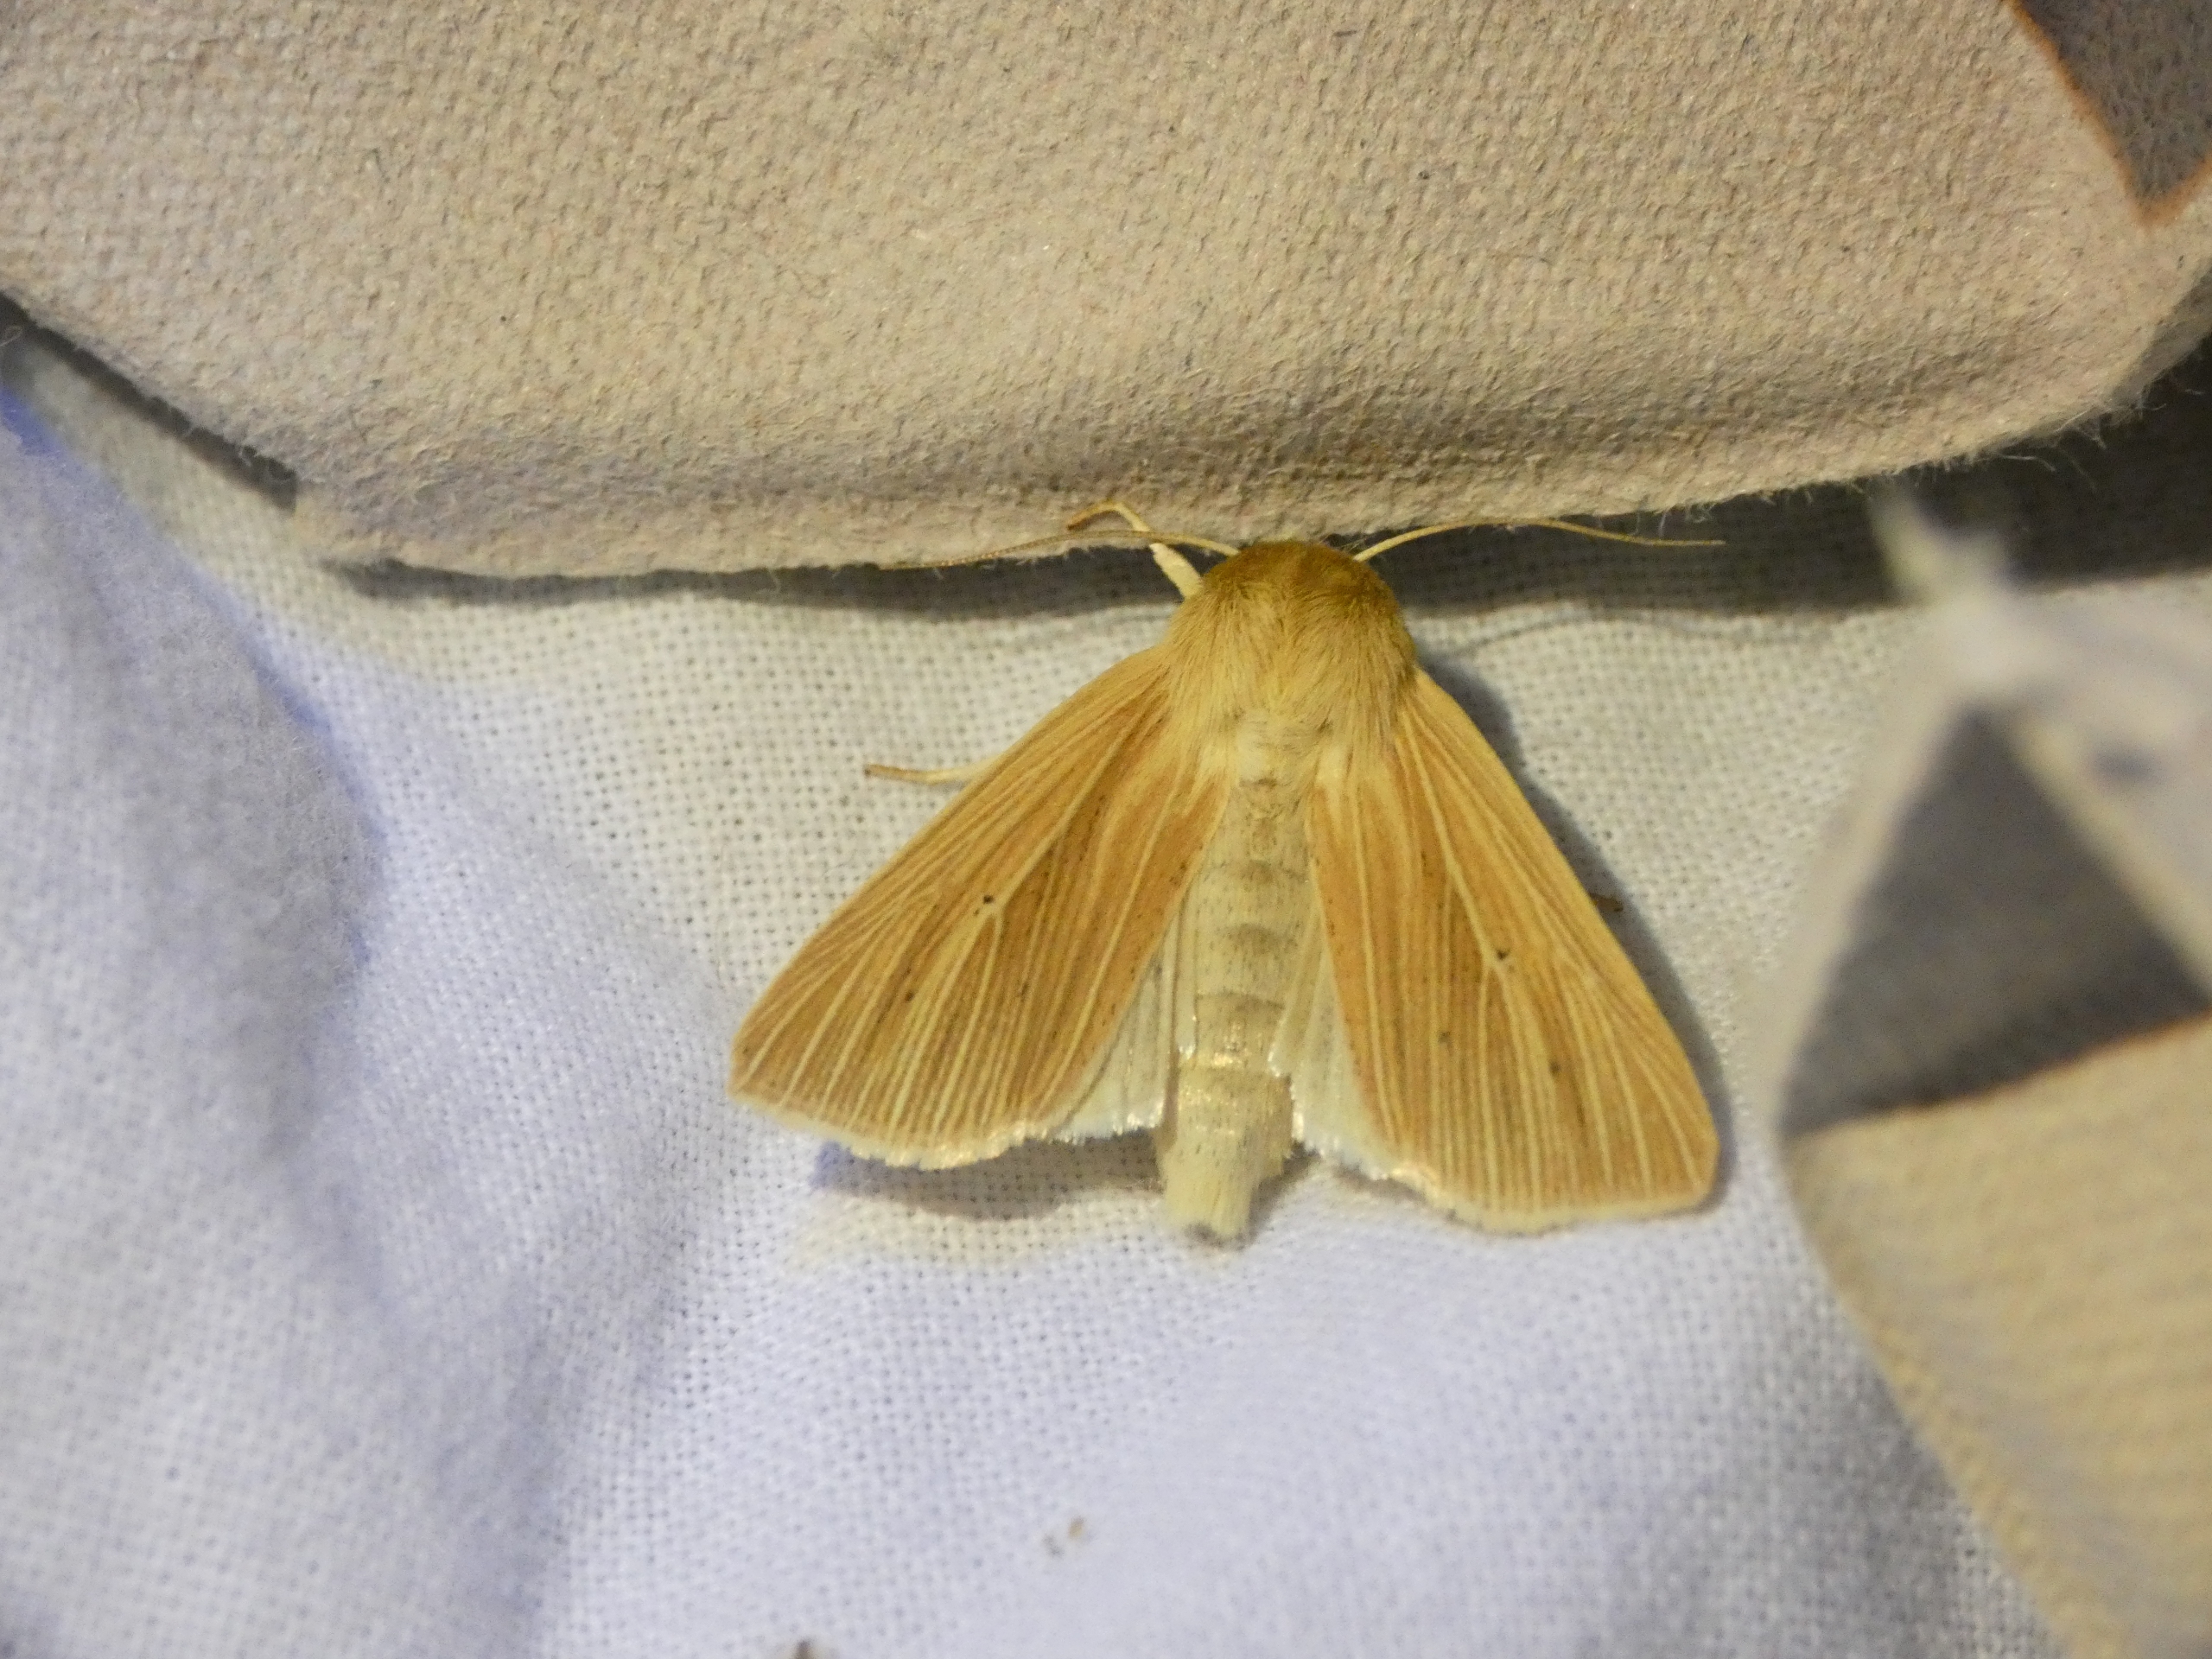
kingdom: Animalia
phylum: Arthropoda
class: Insecta
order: Lepidoptera
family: Noctuidae
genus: Mythimna
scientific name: Mythimna pallens
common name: Halmugle
